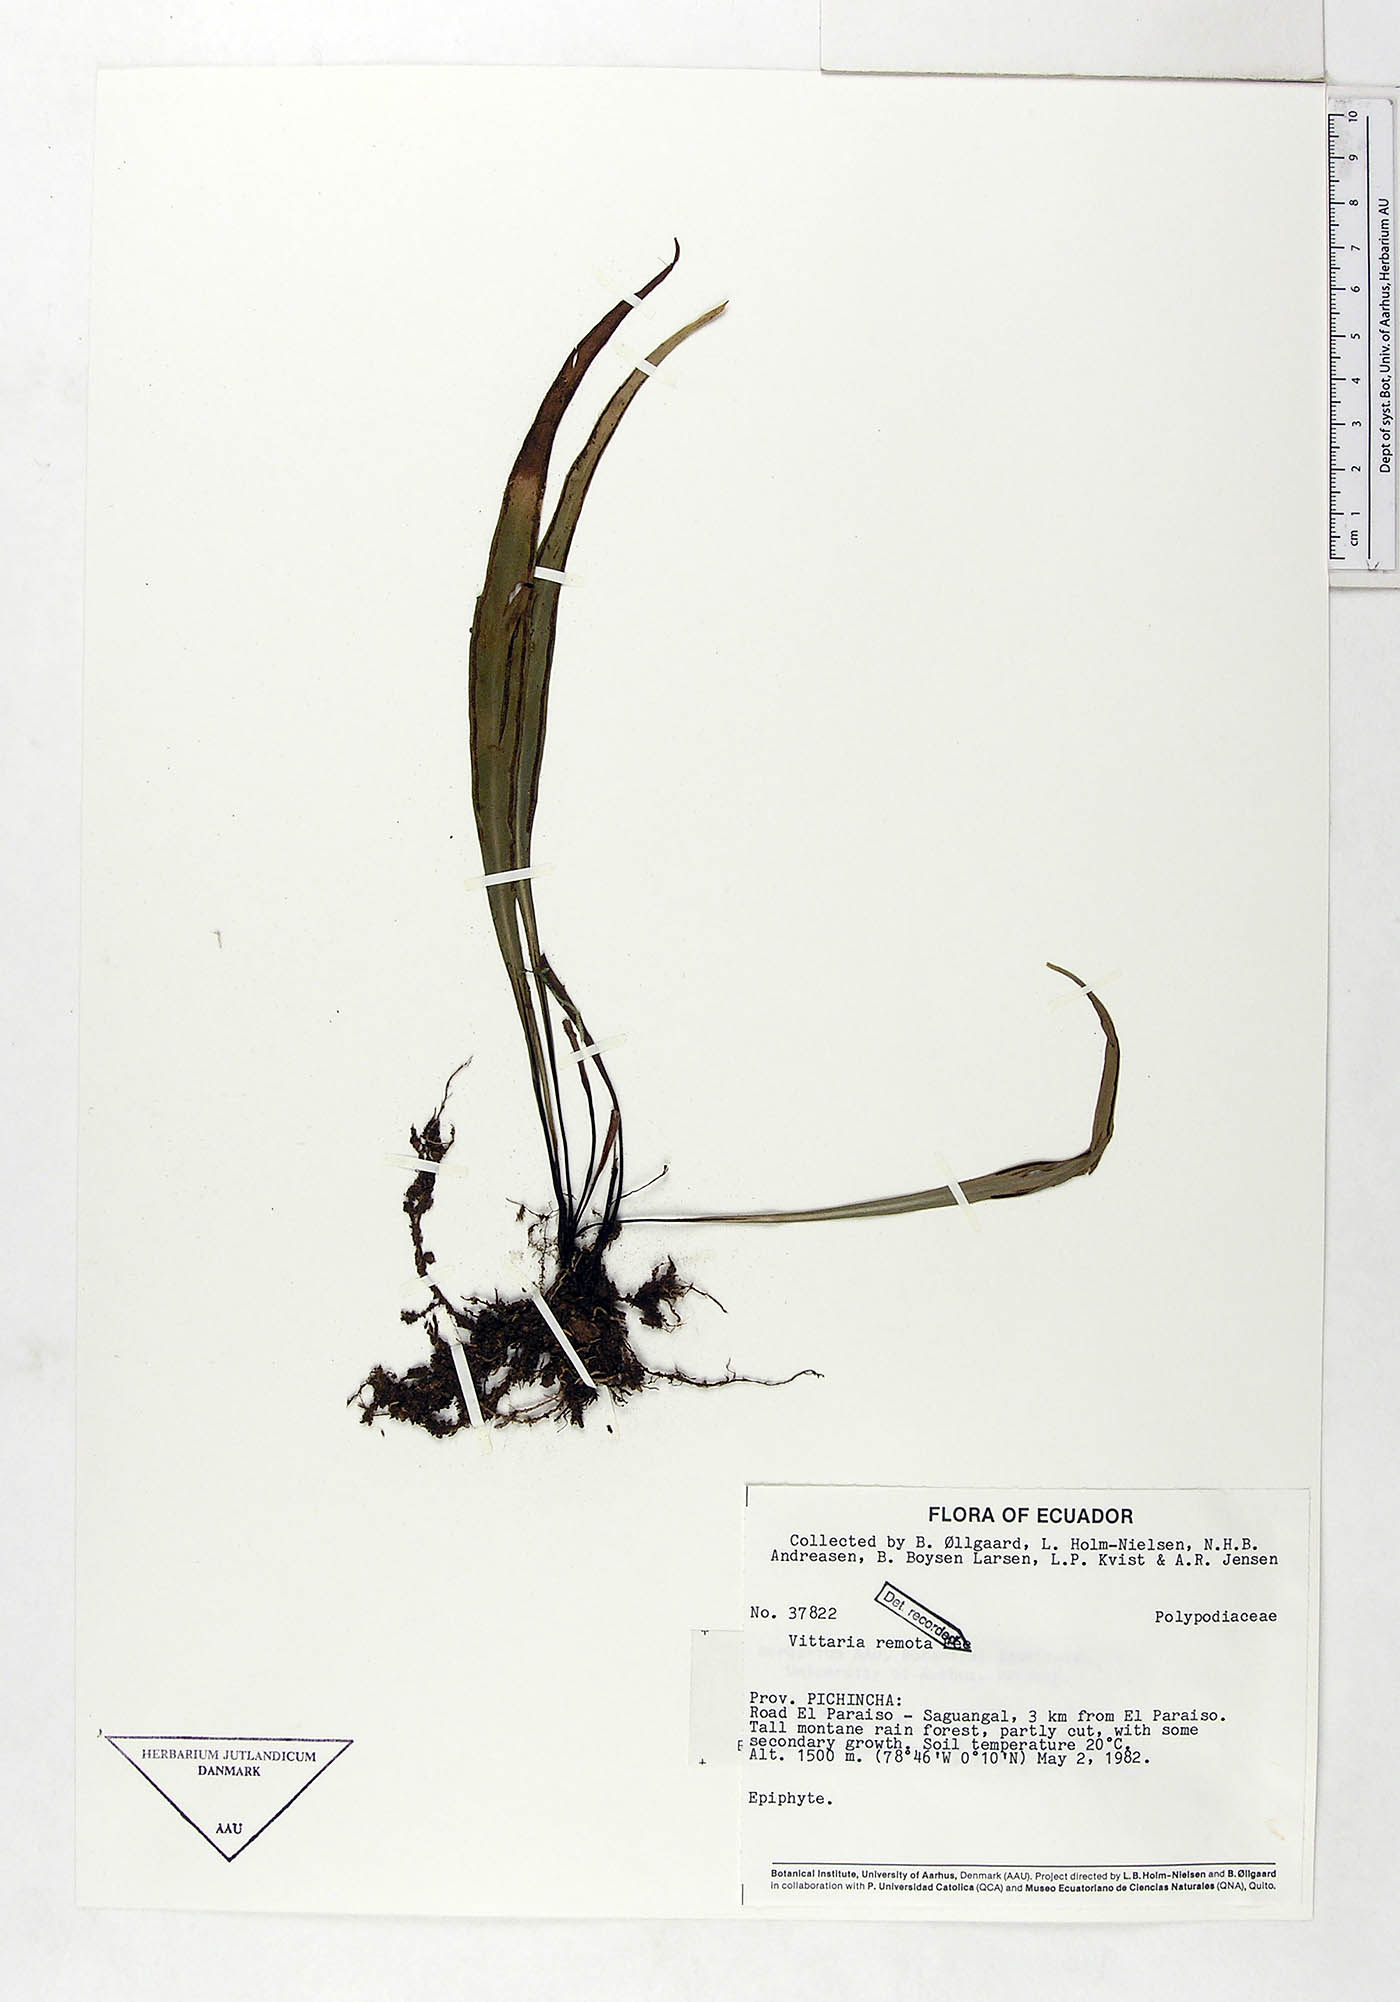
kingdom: Plantae
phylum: Tracheophyta
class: Polypodiopsida
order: Polypodiales
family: Pteridaceae
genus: Radiovittaria
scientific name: Radiovittaria remota
